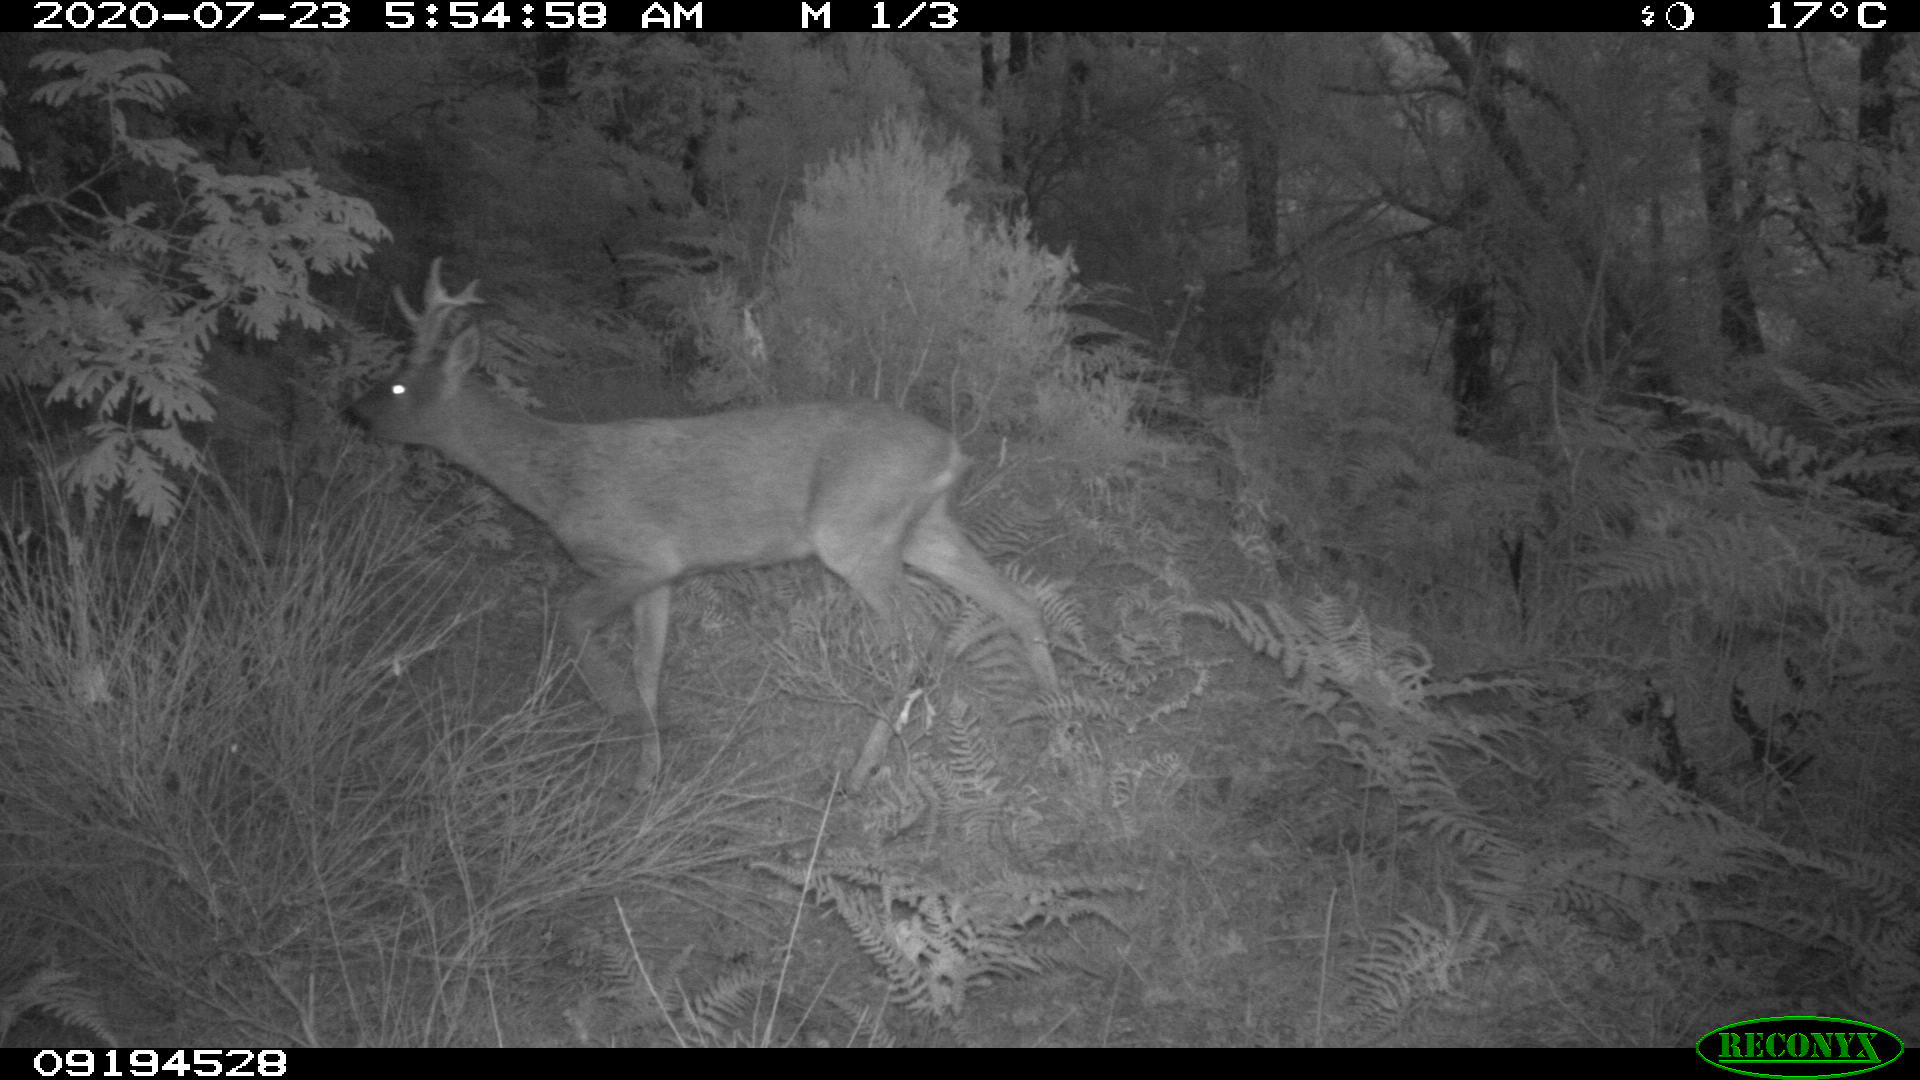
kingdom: Animalia
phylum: Chordata
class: Mammalia
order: Artiodactyla
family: Cervidae
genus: Capreolus
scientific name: Capreolus capreolus
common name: Western roe deer
